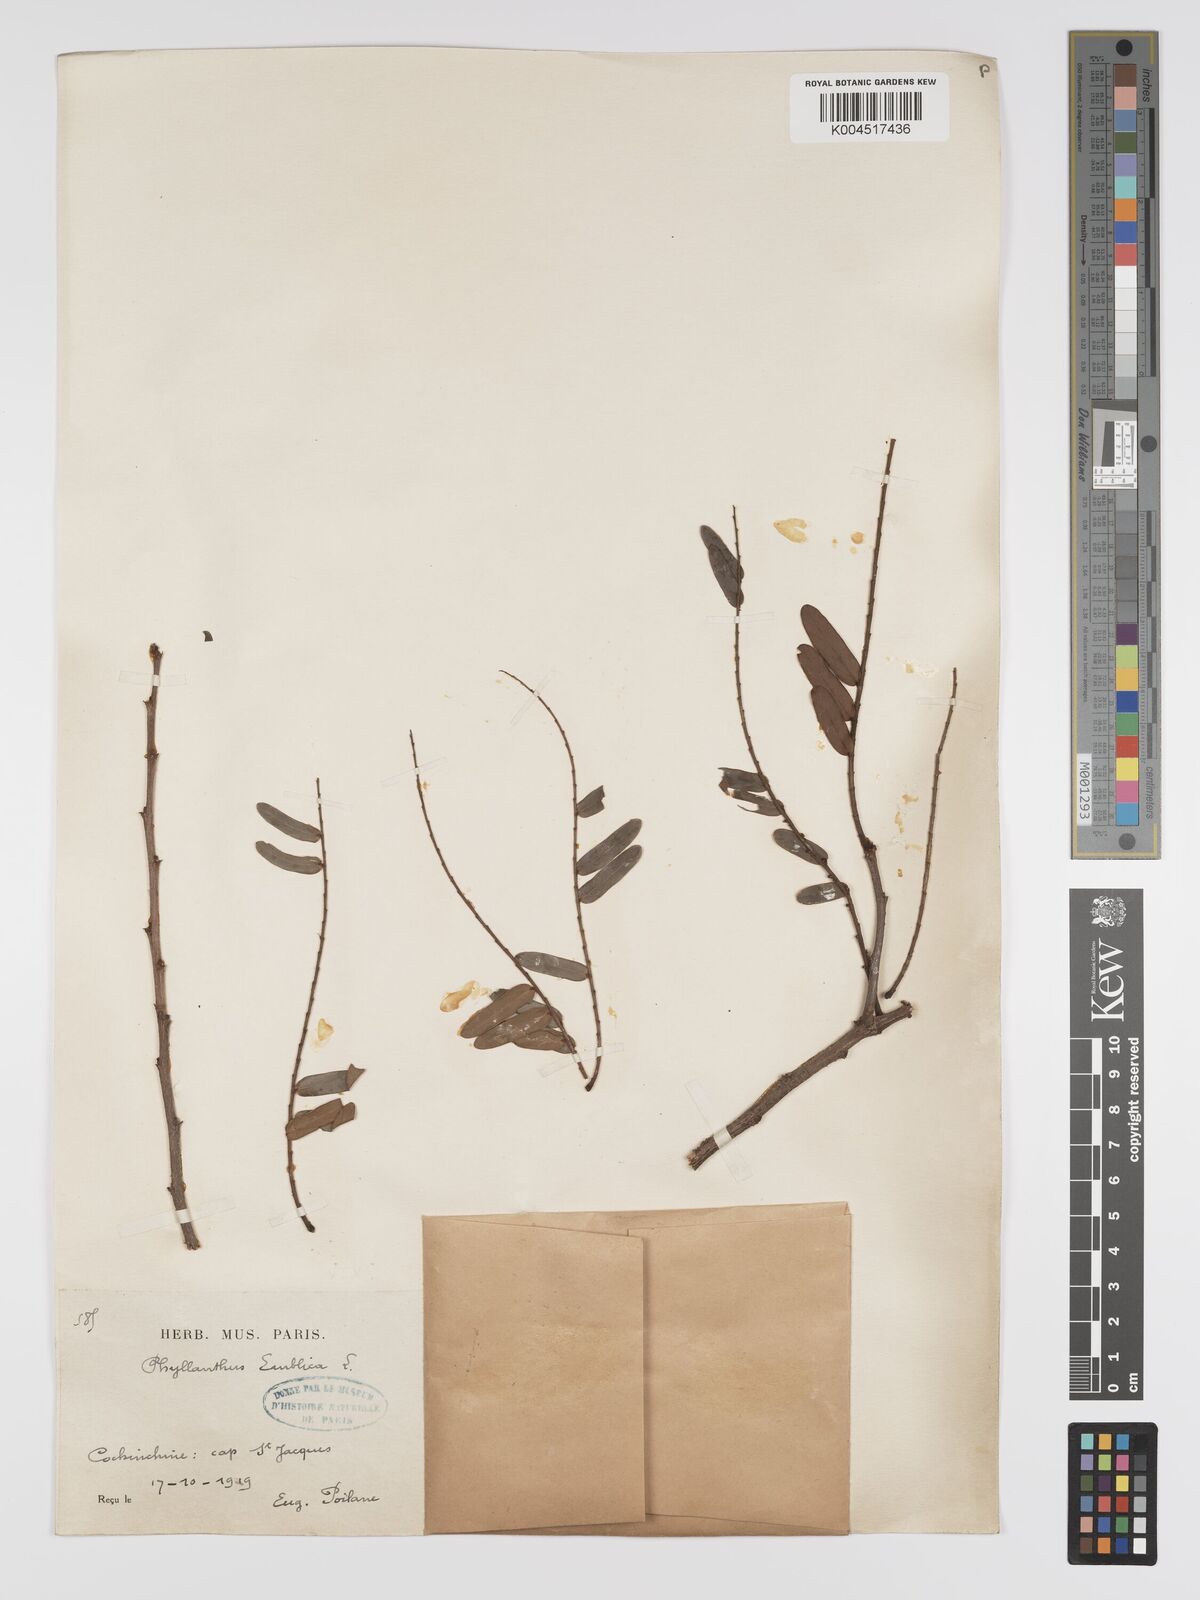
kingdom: Plantae
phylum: Tracheophyta
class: Magnoliopsida
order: Malpighiales
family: Phyllanthaceae
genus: Phyllanthus
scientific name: Phyllanthus emblica
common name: Indian gooseberry
